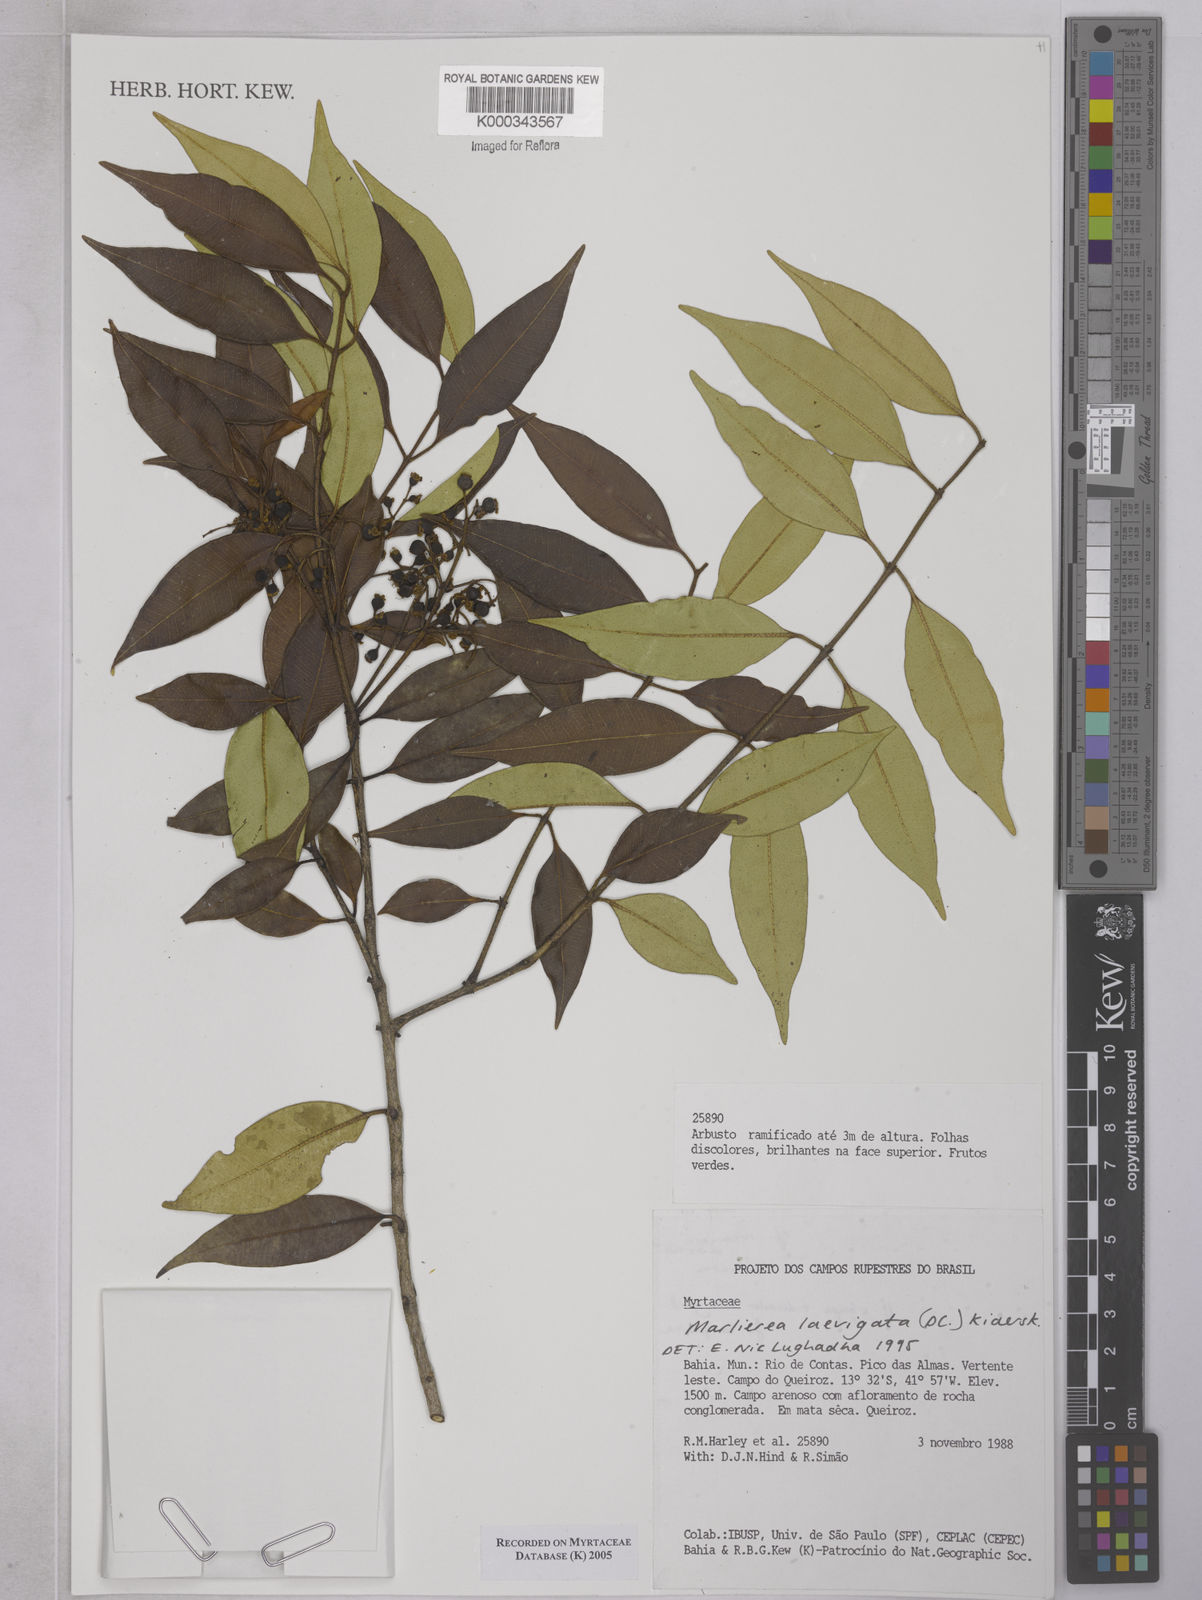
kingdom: Plantae
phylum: Tracheophyta
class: Magnoliopsida
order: Myrtales
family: Myrtaceae
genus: Myrcia
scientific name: Myrcia multipunctata
